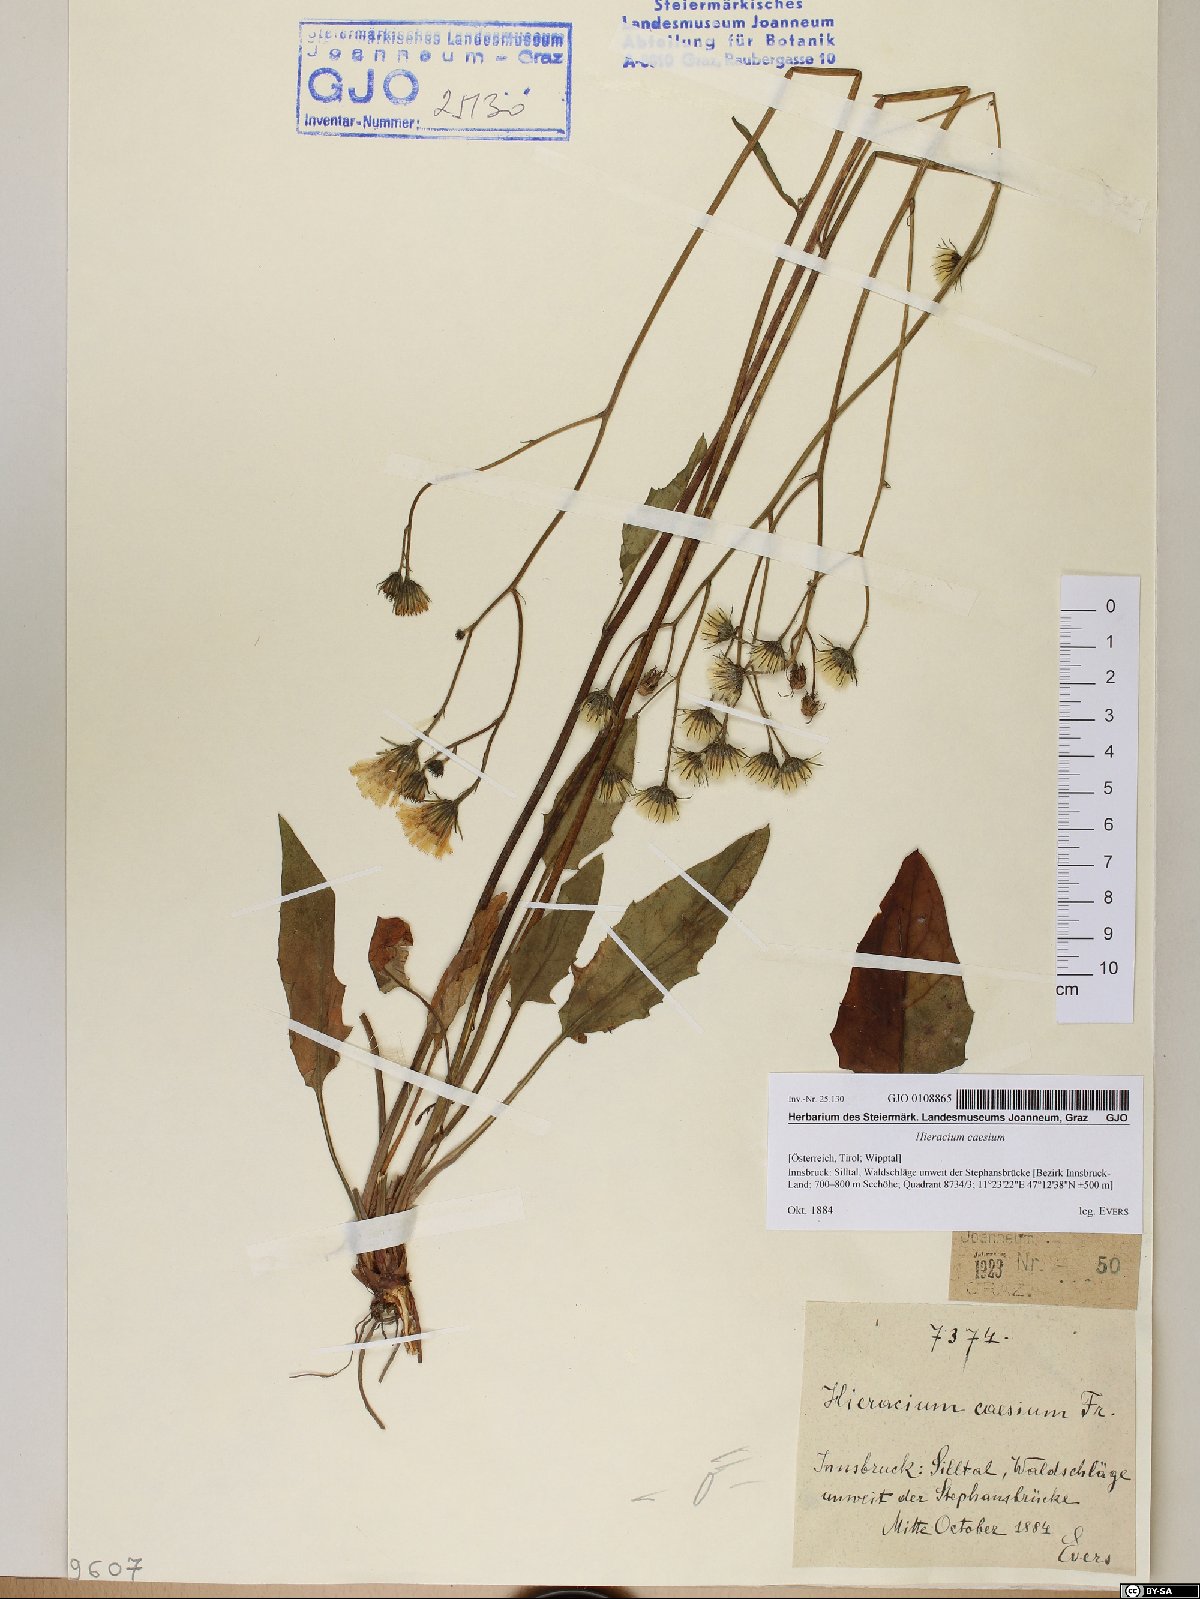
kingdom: Plantae
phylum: Tracheophyta
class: Magnoliopsida
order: Asterales
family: Asteraceae
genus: Hieracium
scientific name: Hieracium caesium
